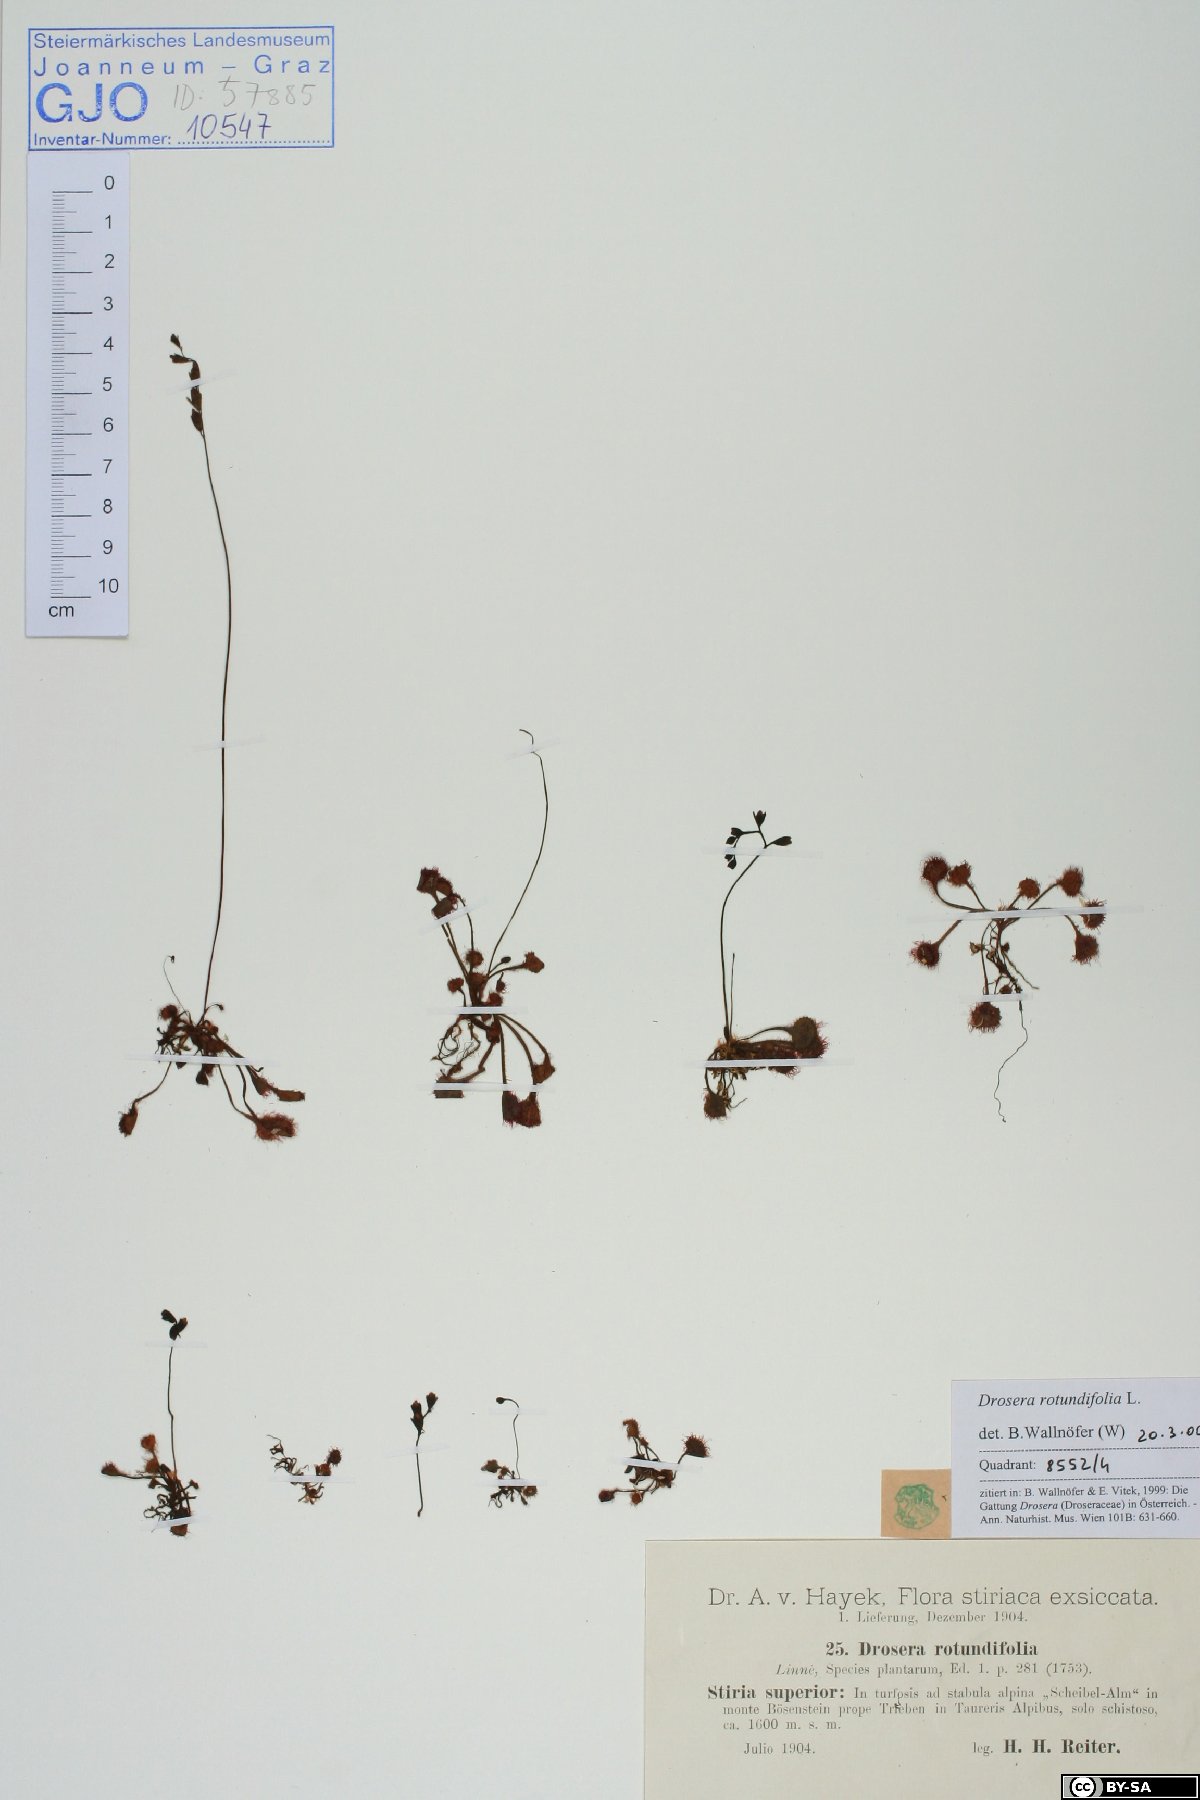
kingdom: Plantae
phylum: Tracheophyta
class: Magnoliopsida
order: Caryophyllales
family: Droseraceae
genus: Drosera
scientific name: Drosera rotundifolia
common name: Round-leaved sundew
